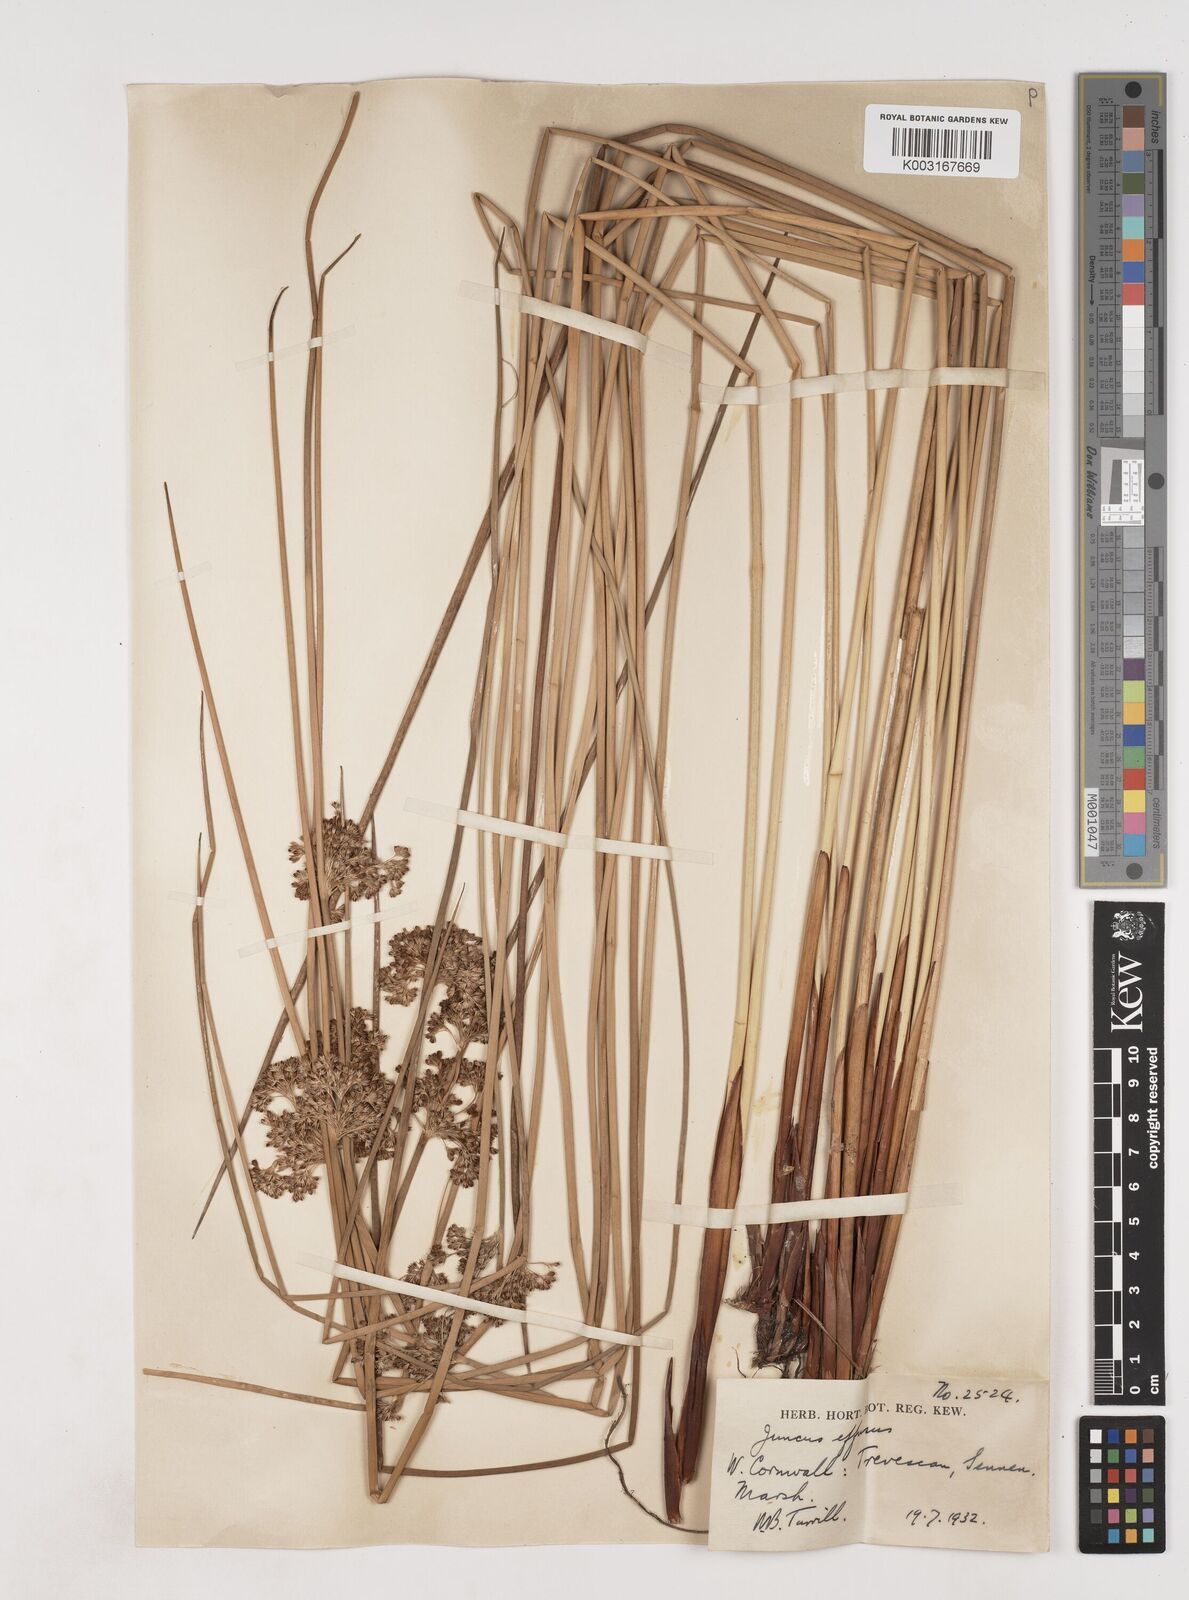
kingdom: Plantae
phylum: Tracheophyta
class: Liliopsida
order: Poales
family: Juncaceae
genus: Juncus
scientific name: Juncus effusus
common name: Soft rush
